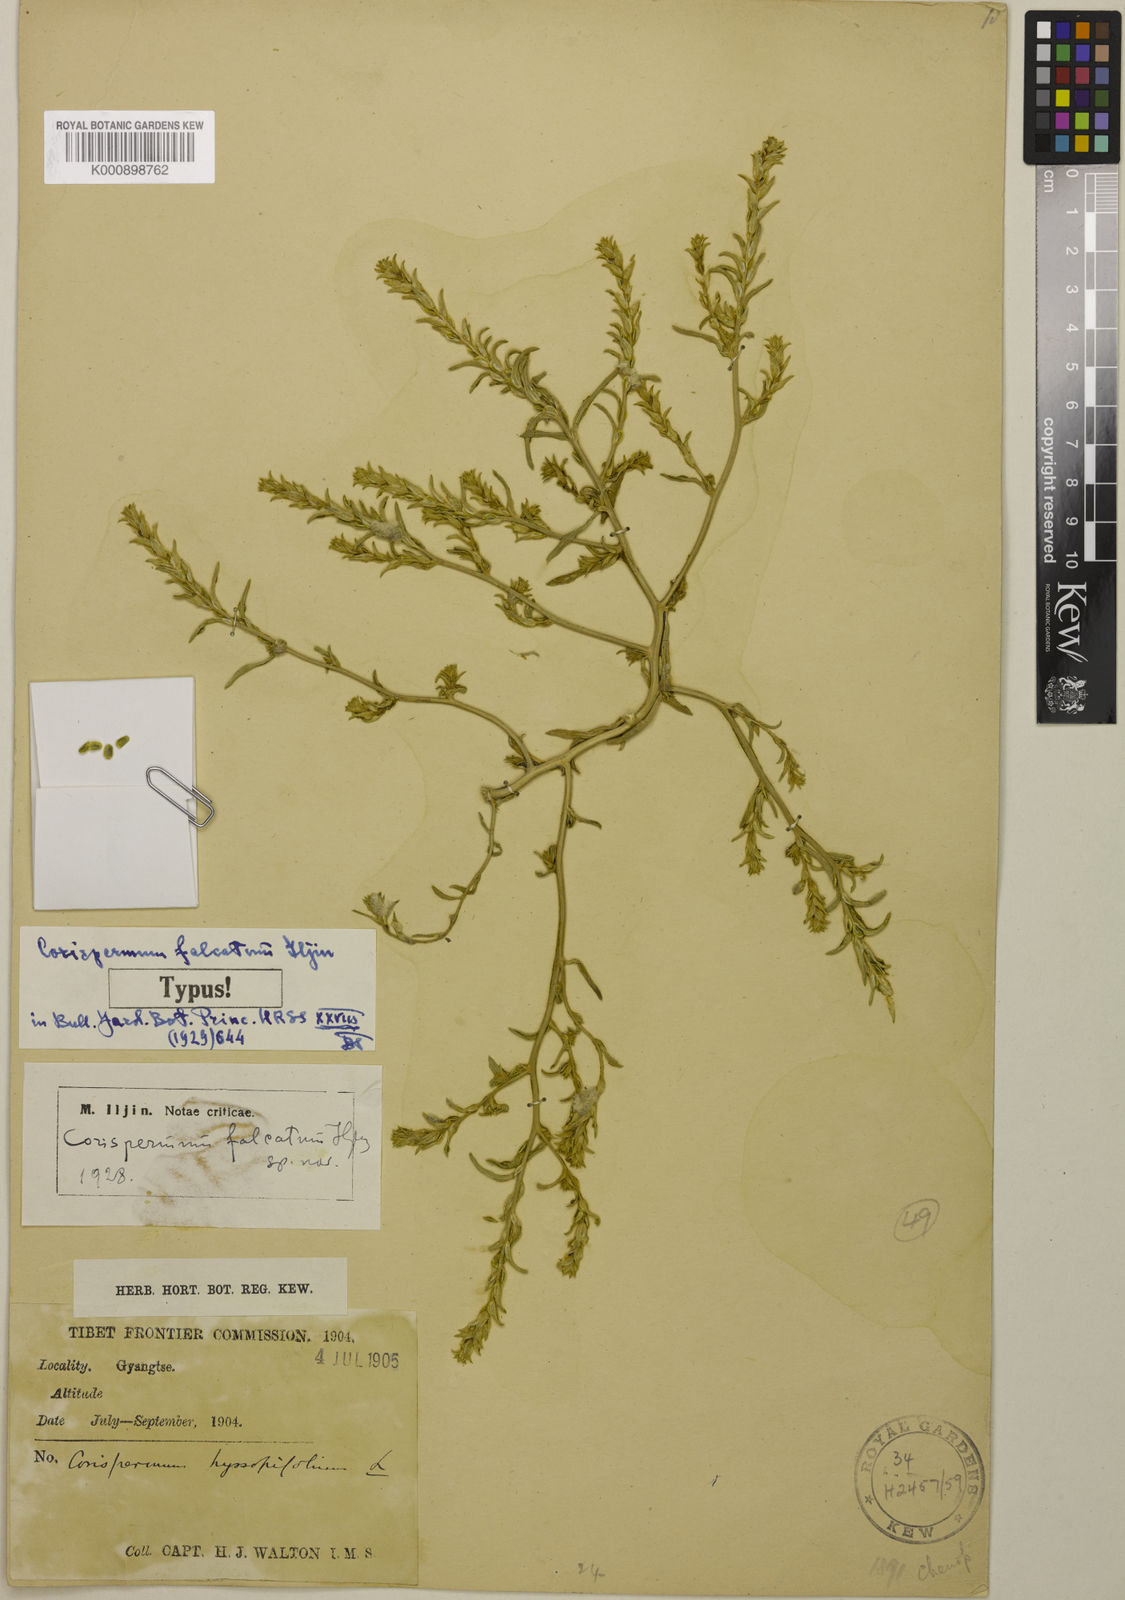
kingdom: Plantae
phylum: Tracheophyta
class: Magnoliopsida
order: Caryophyllales
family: Amaranthaceae
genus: Corispermum
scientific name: Corispermum hyssopifolium
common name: Bugseed
